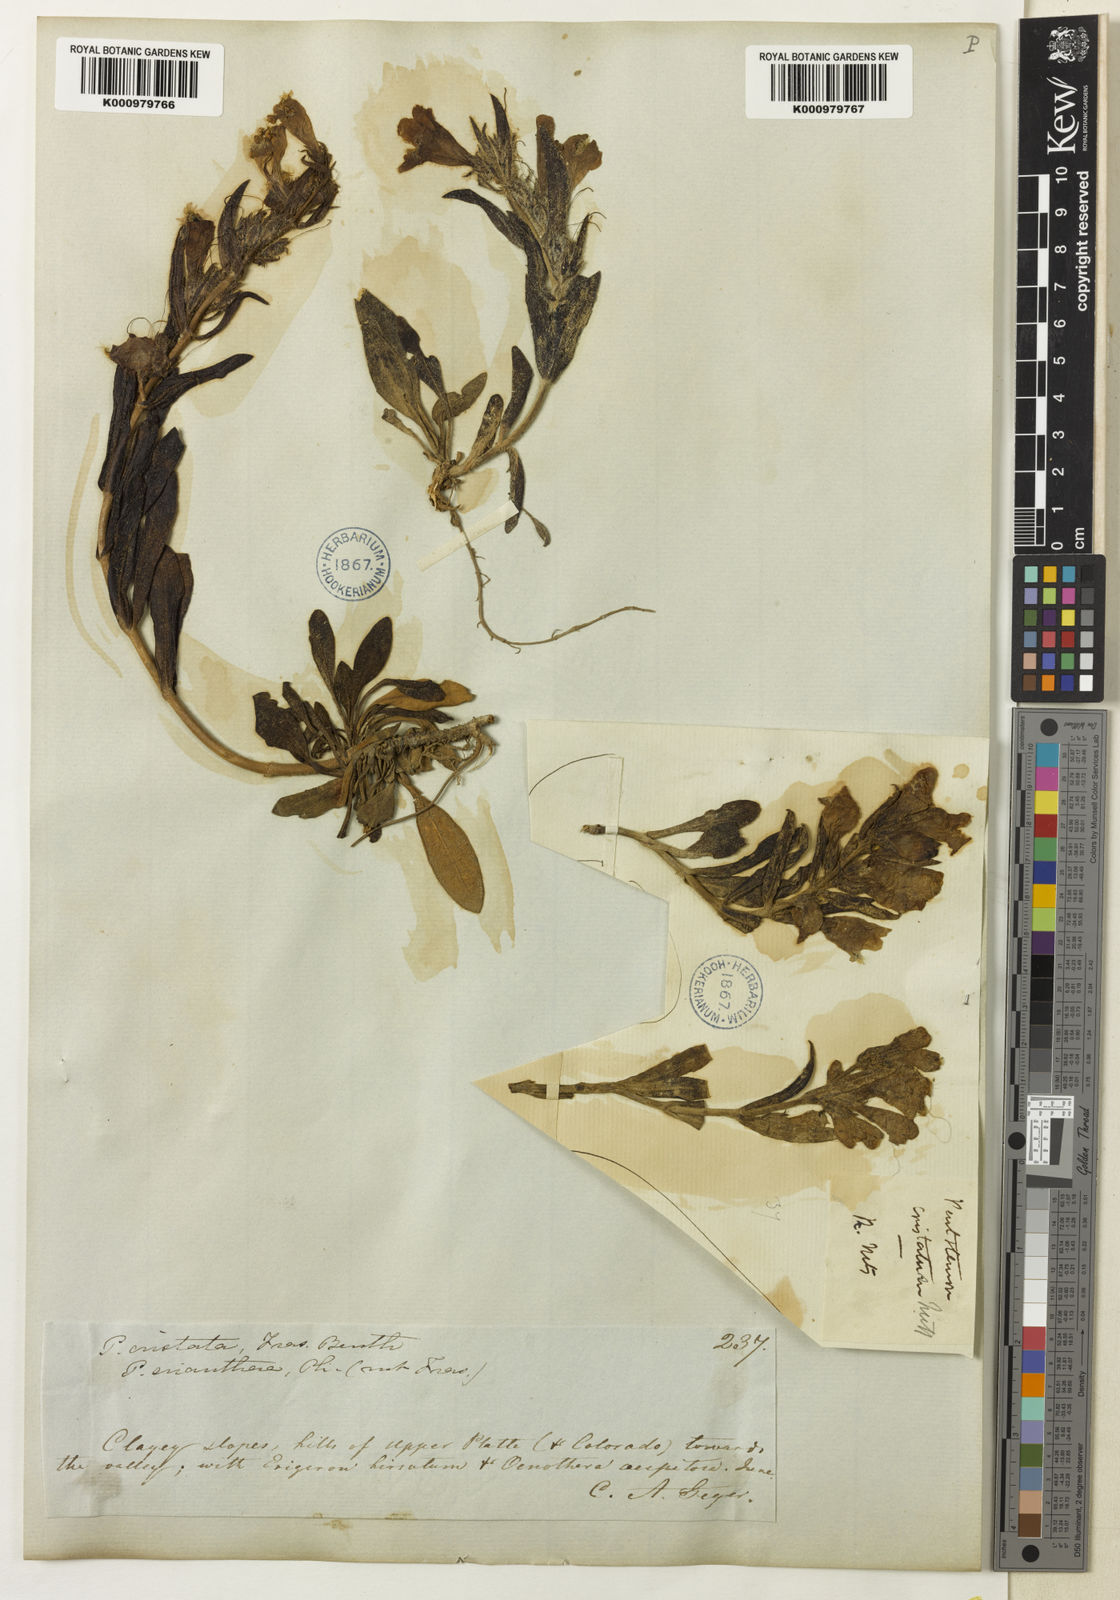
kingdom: Plantae
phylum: Tracheophyta
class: Magnoliopsida
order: Lamiales
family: Plantaginaceae
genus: Penstemon
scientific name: Penstemon eriantherus
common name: Crested beardtongue
